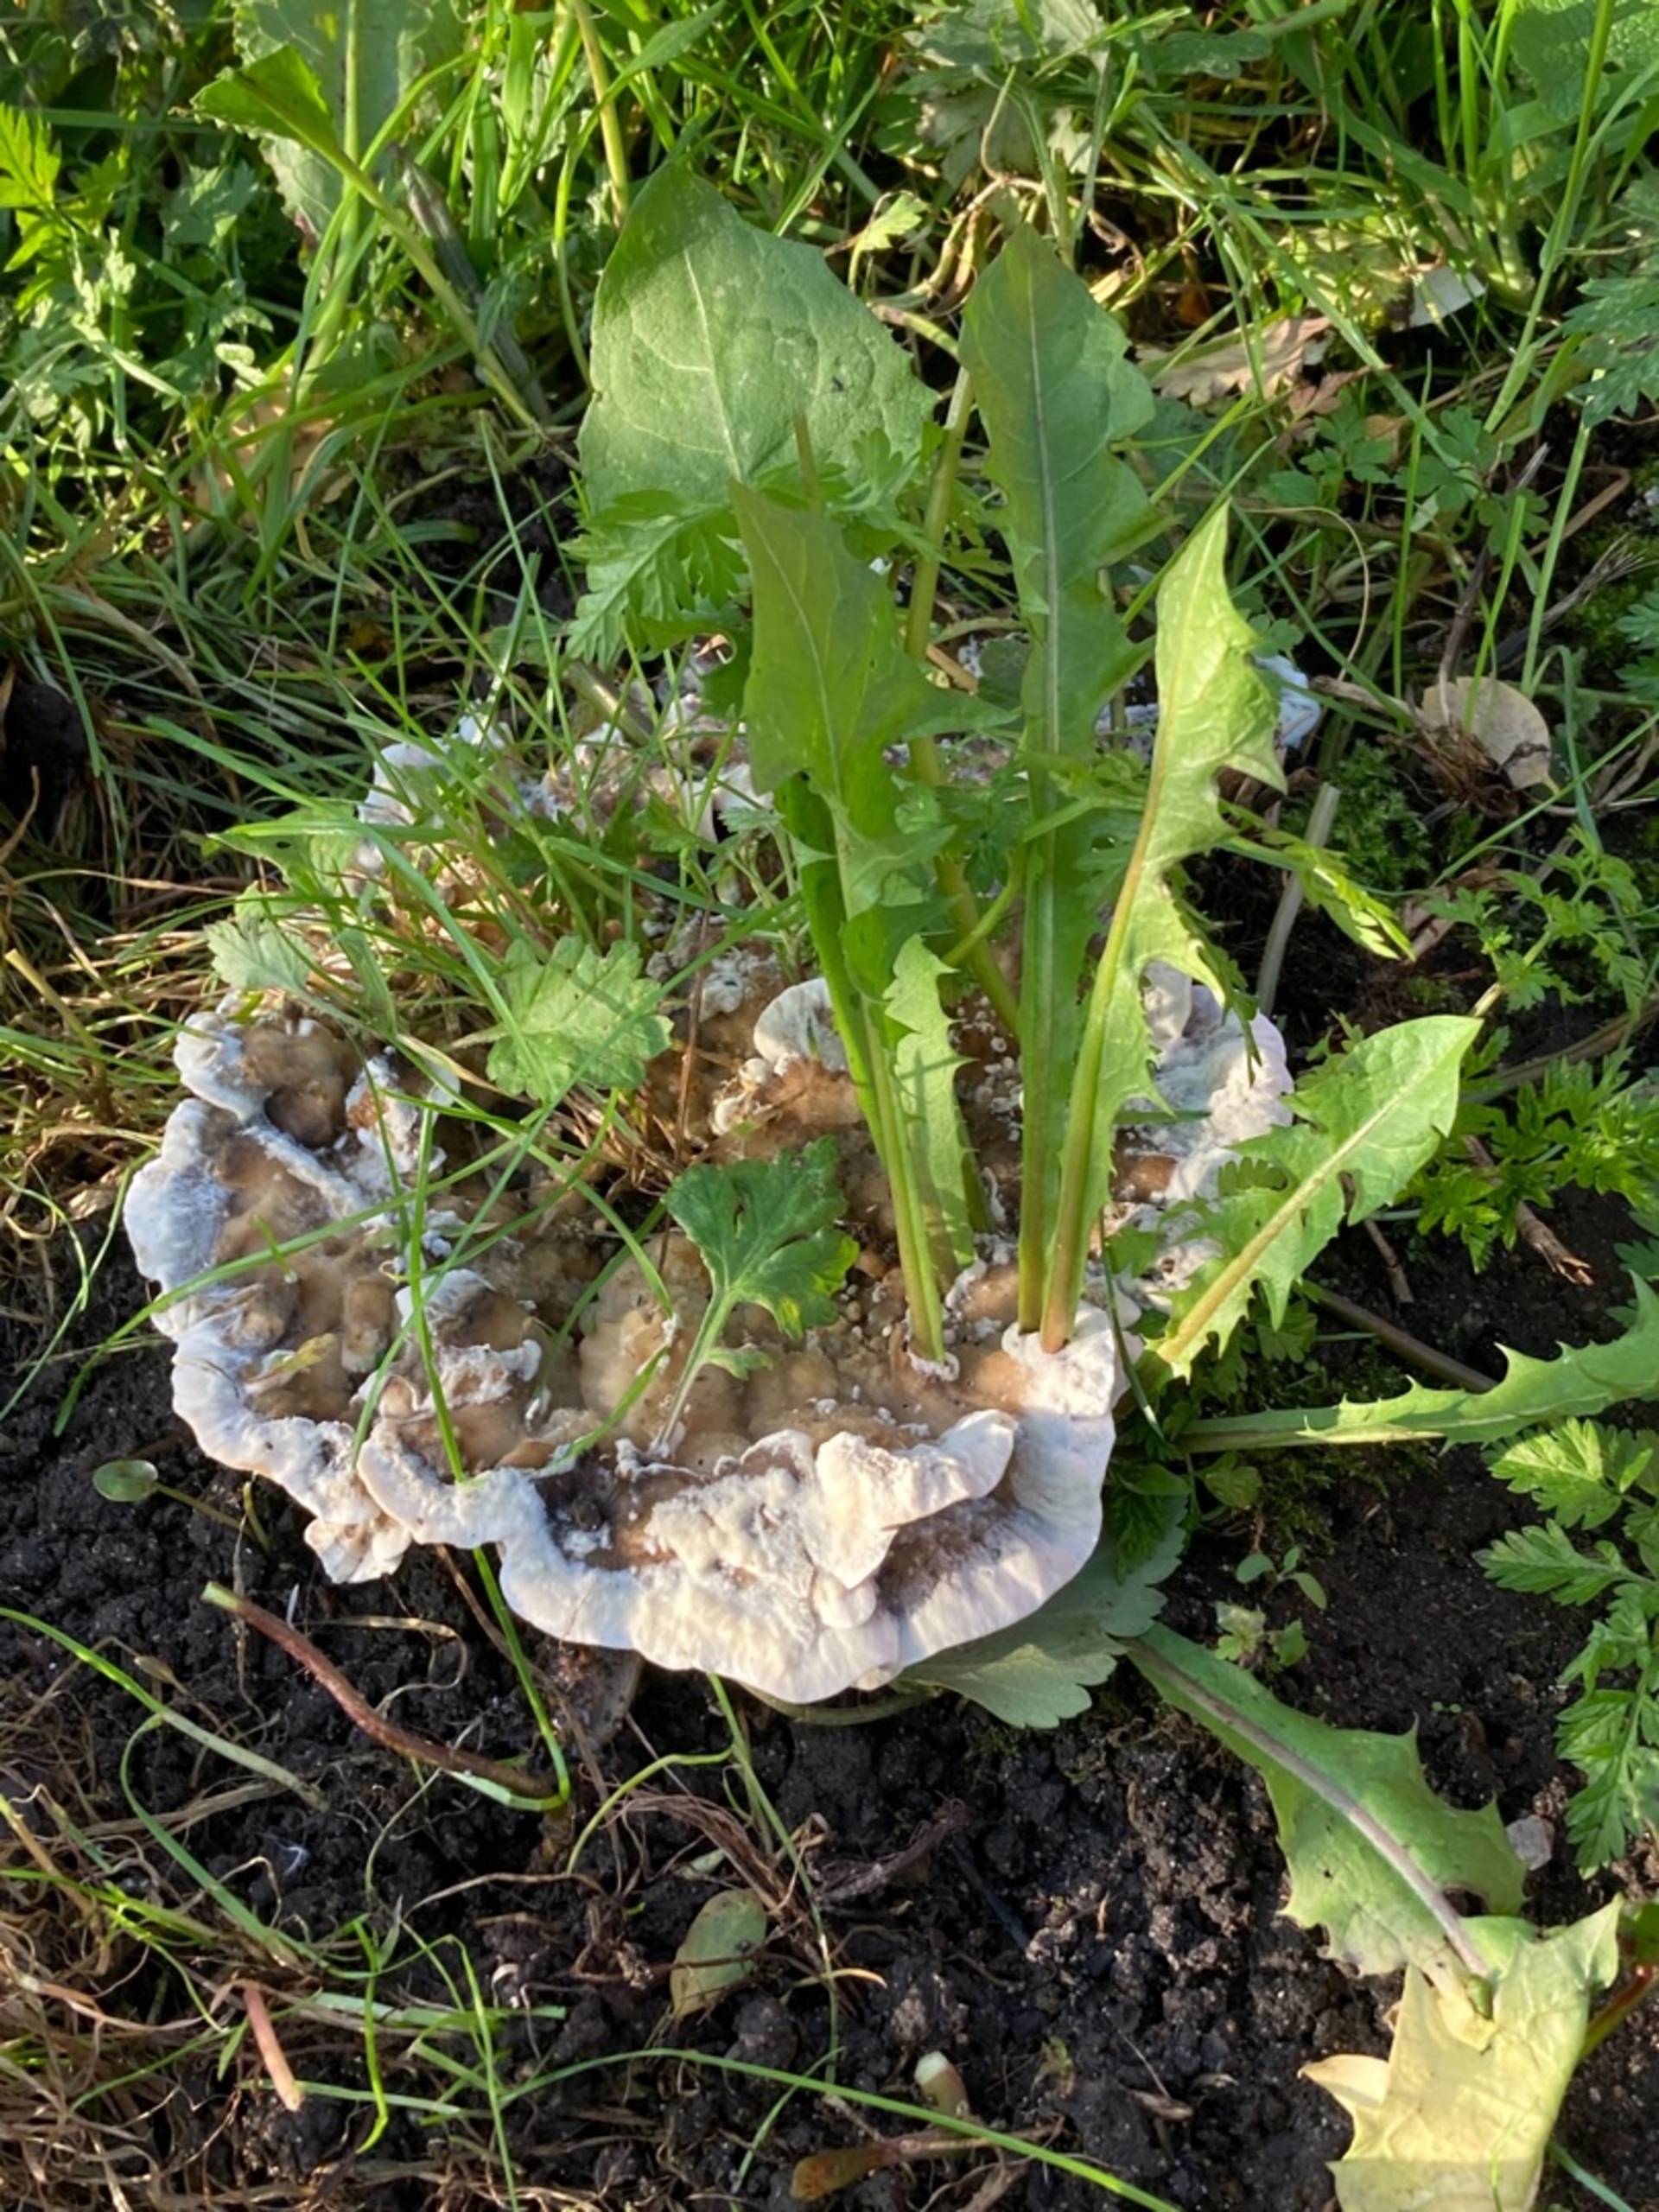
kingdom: Fungi
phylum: Basidiomycota
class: Agaricomycetes
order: Polyporales
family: Podoscyphaceae
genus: Abortiporus
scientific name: Abortiporus biennis
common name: Rødmende pjalteporesvamp
